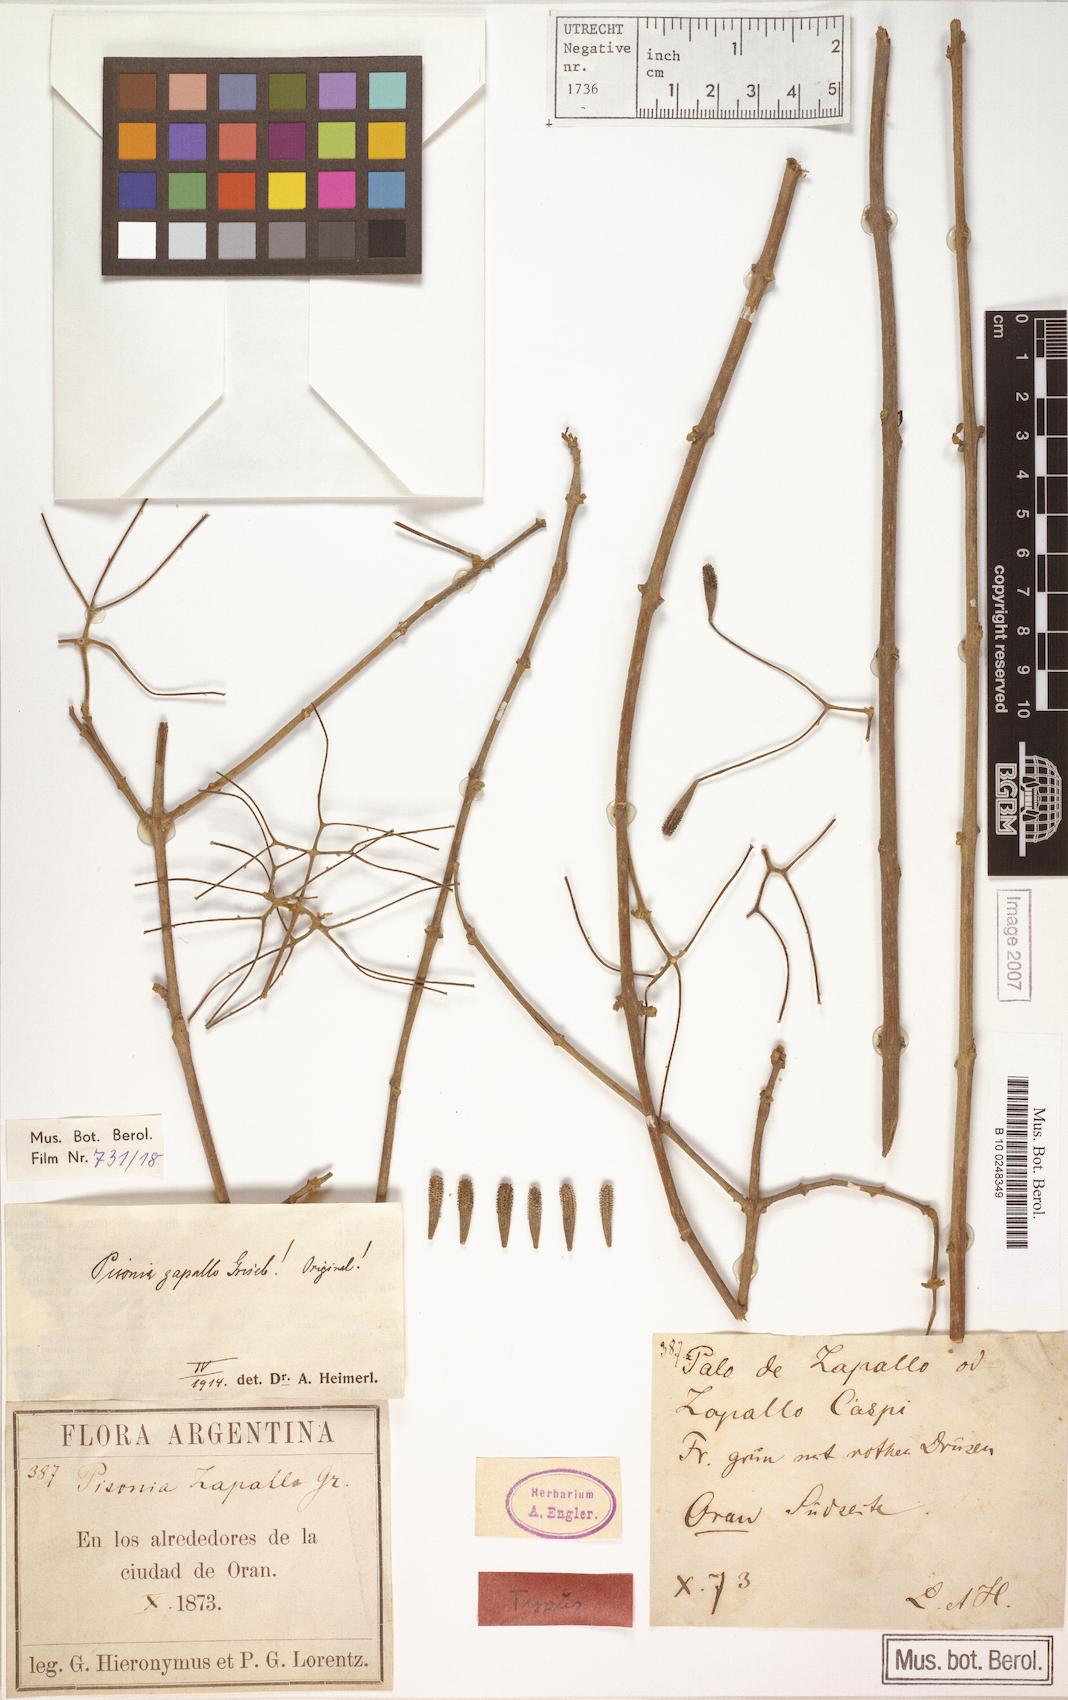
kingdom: Plantae
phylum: Tracheophyta
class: Magnoliopsida
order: Caryophyllales
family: Nyctaginaceae
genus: Pisonia
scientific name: Pisonia zapallo
